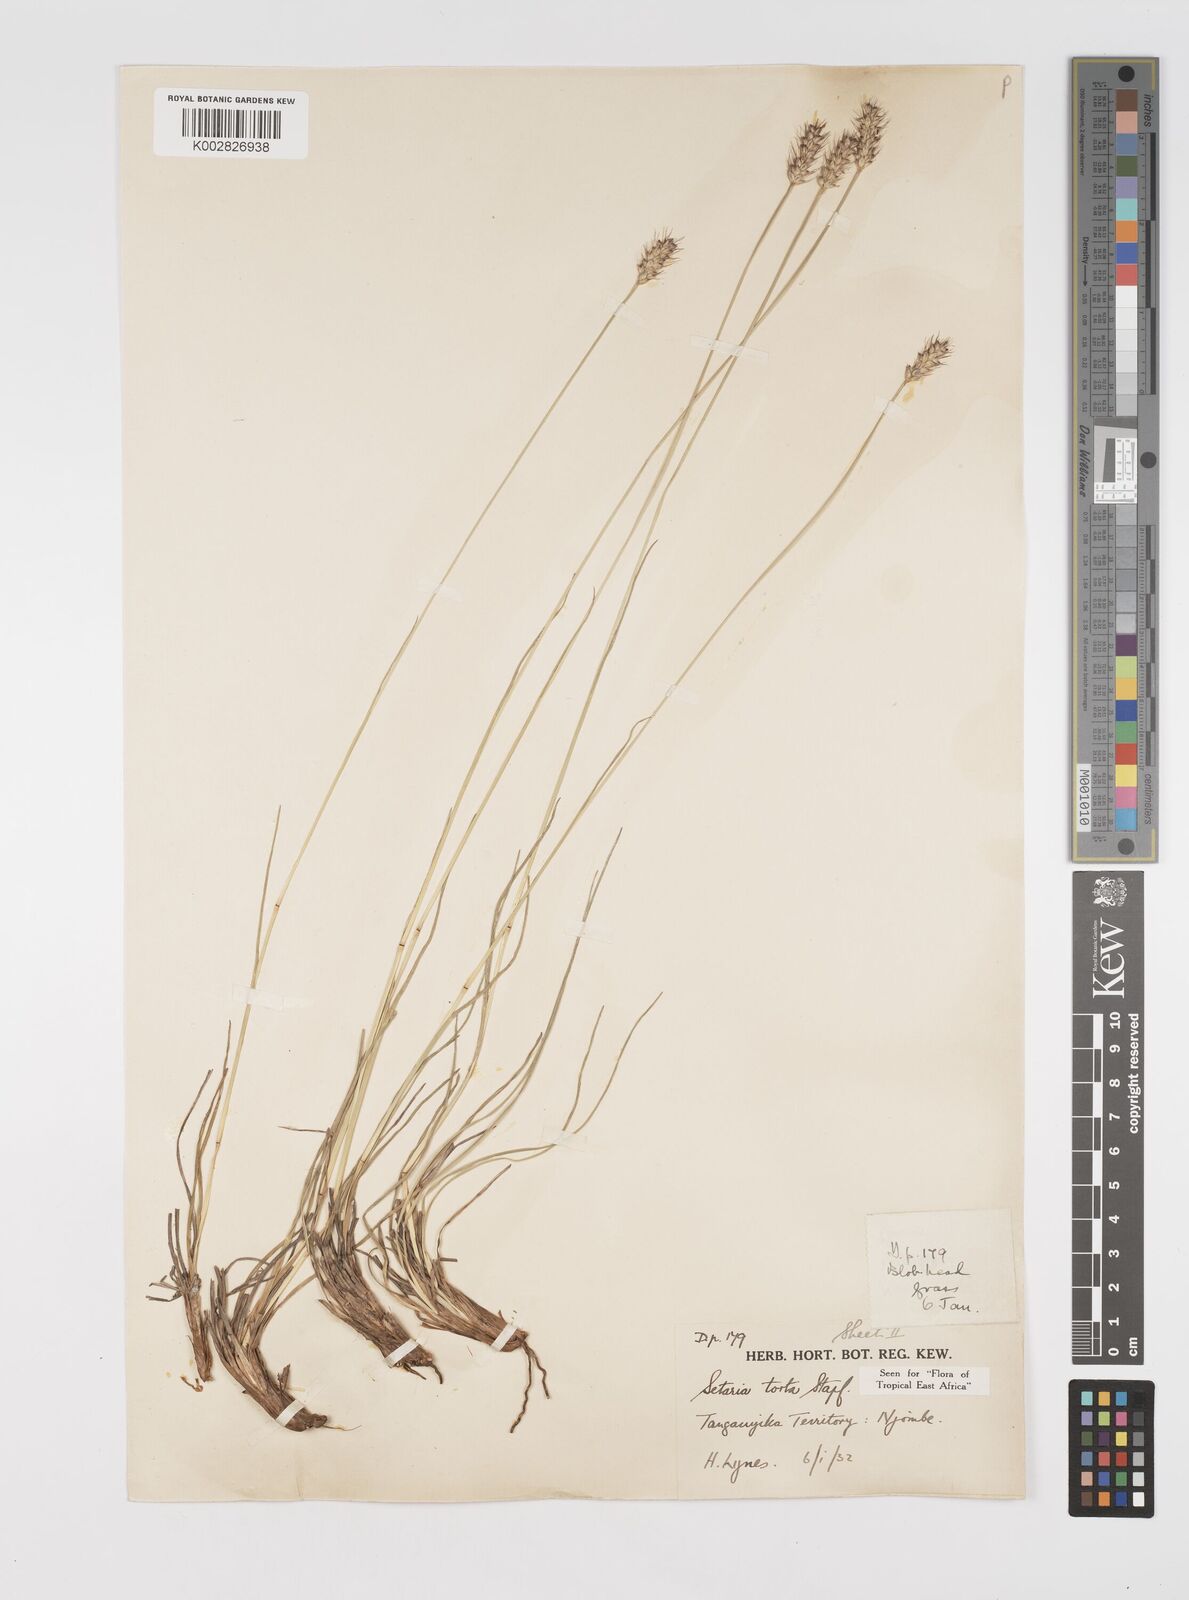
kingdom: Plantae
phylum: Tracheophyta
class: Liliopsida
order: Poales
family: Poaceae
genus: Setaria
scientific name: Setaria sphacelata
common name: African bristlegrass
